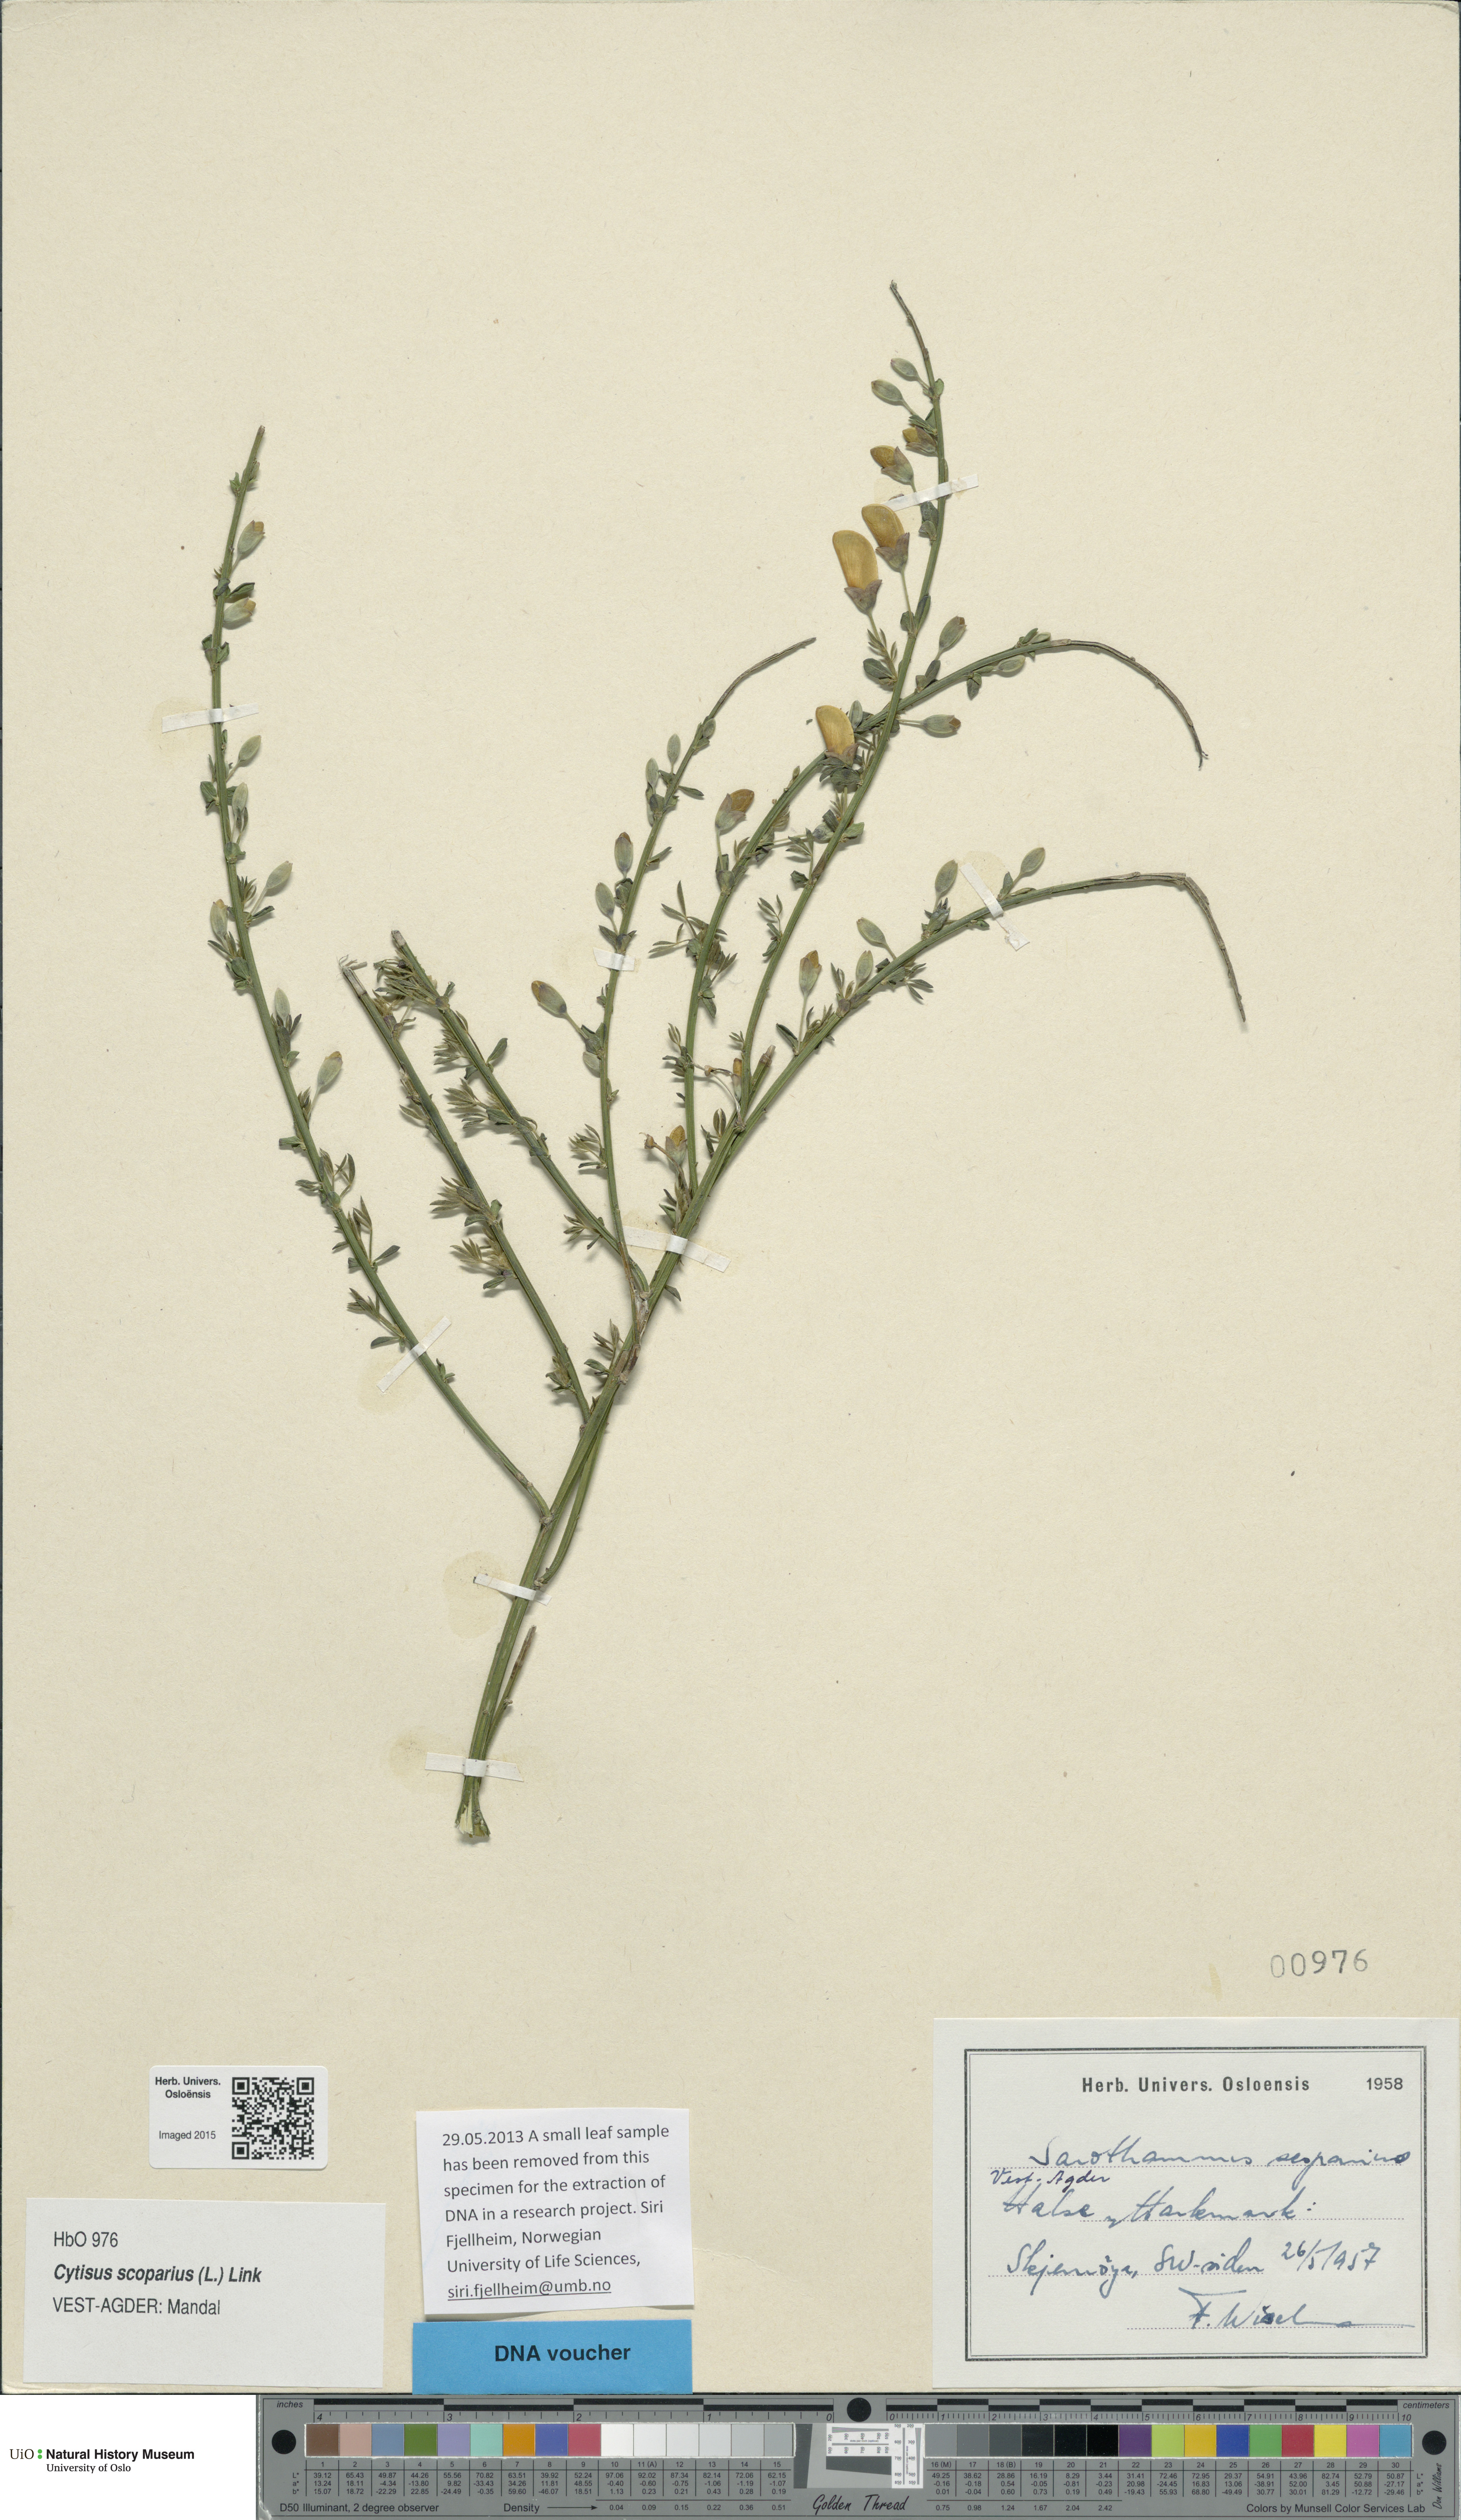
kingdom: Plantae
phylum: Tracheophyta
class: Magnoliopsida
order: Fabales
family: Fabaceae
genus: Cytisus
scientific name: Cytisus scoparius
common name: Scotch broom
